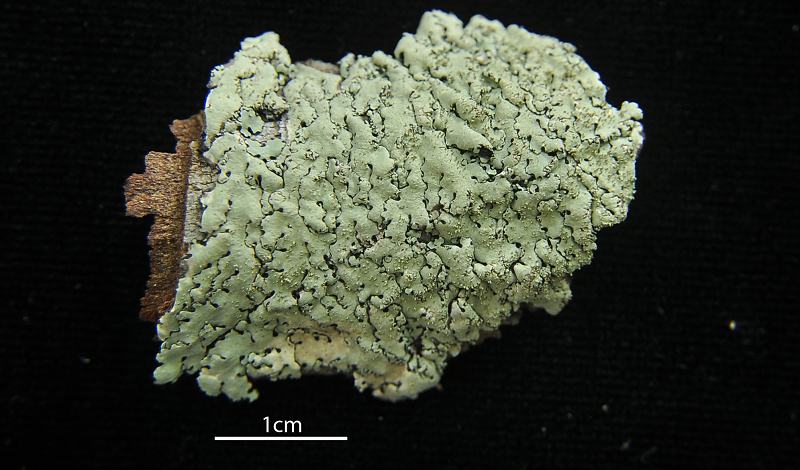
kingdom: Fungi
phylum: Ascomycota
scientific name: Ascomycota
